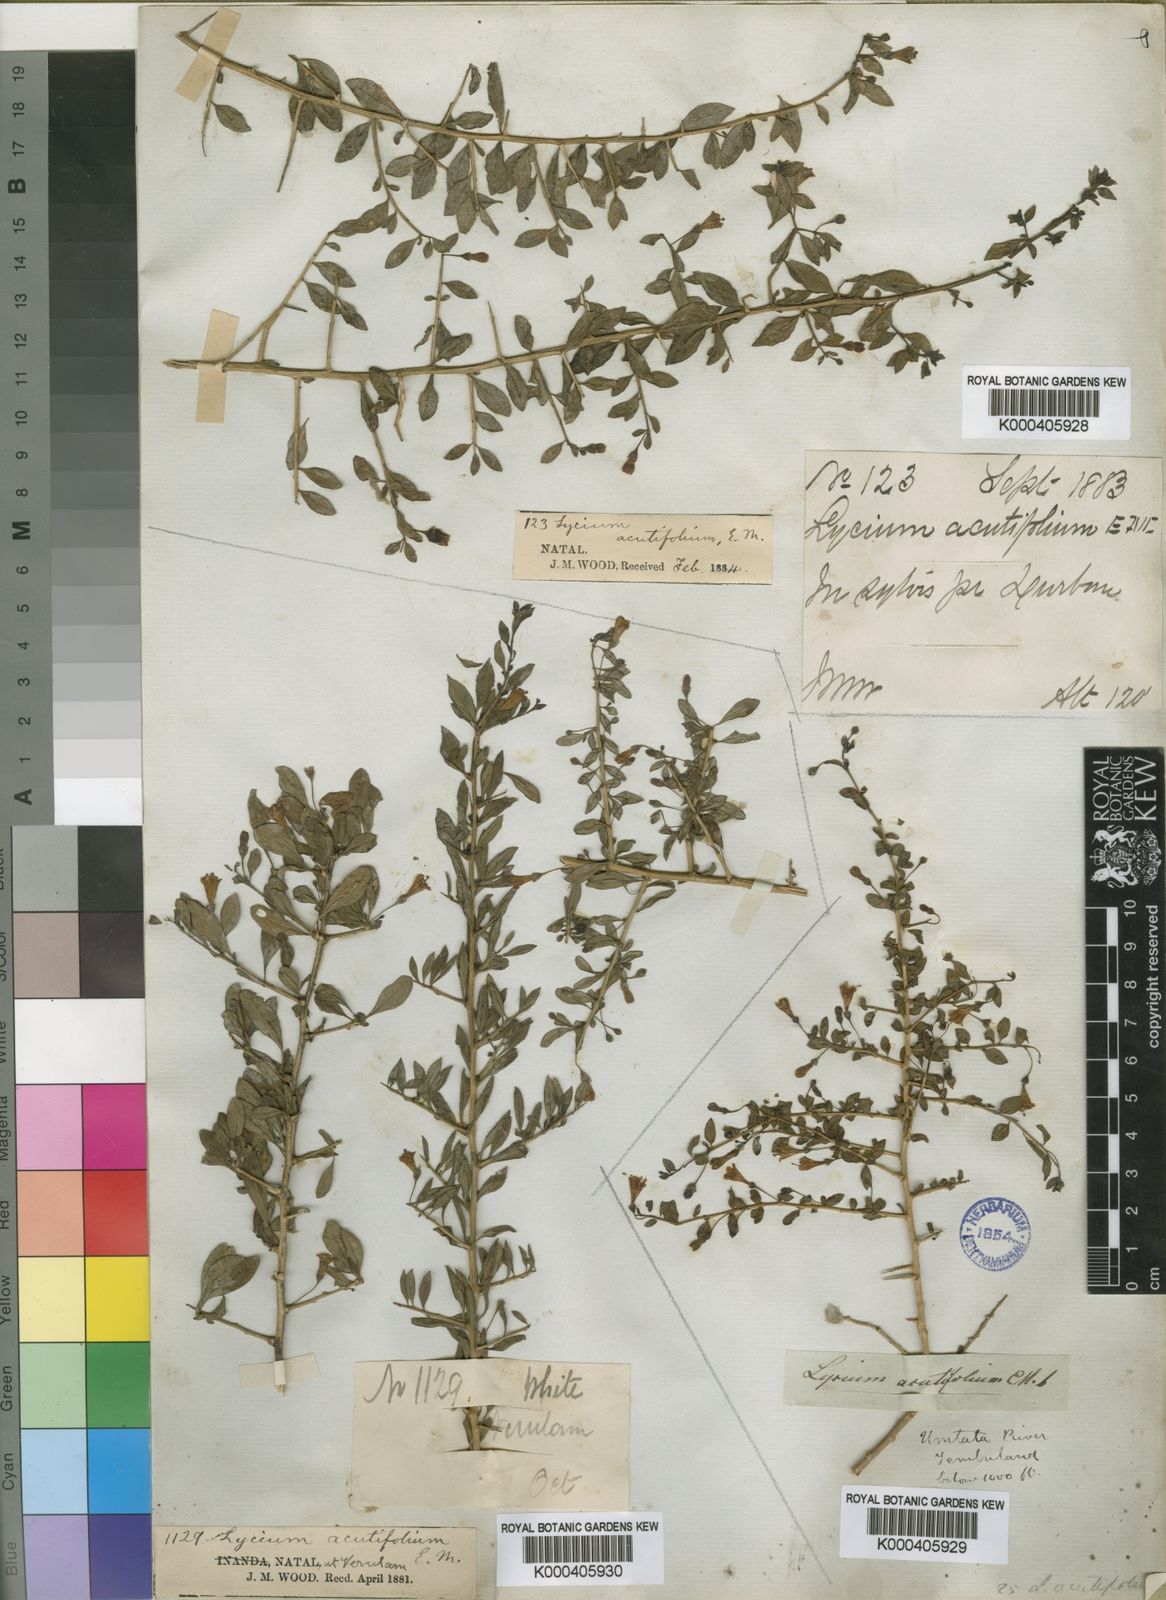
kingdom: Plantae
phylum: Tracheophyta
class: Magnoliopsida
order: Solanales
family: Solanaceae
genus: Lycium
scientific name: Lycium acutifolium
